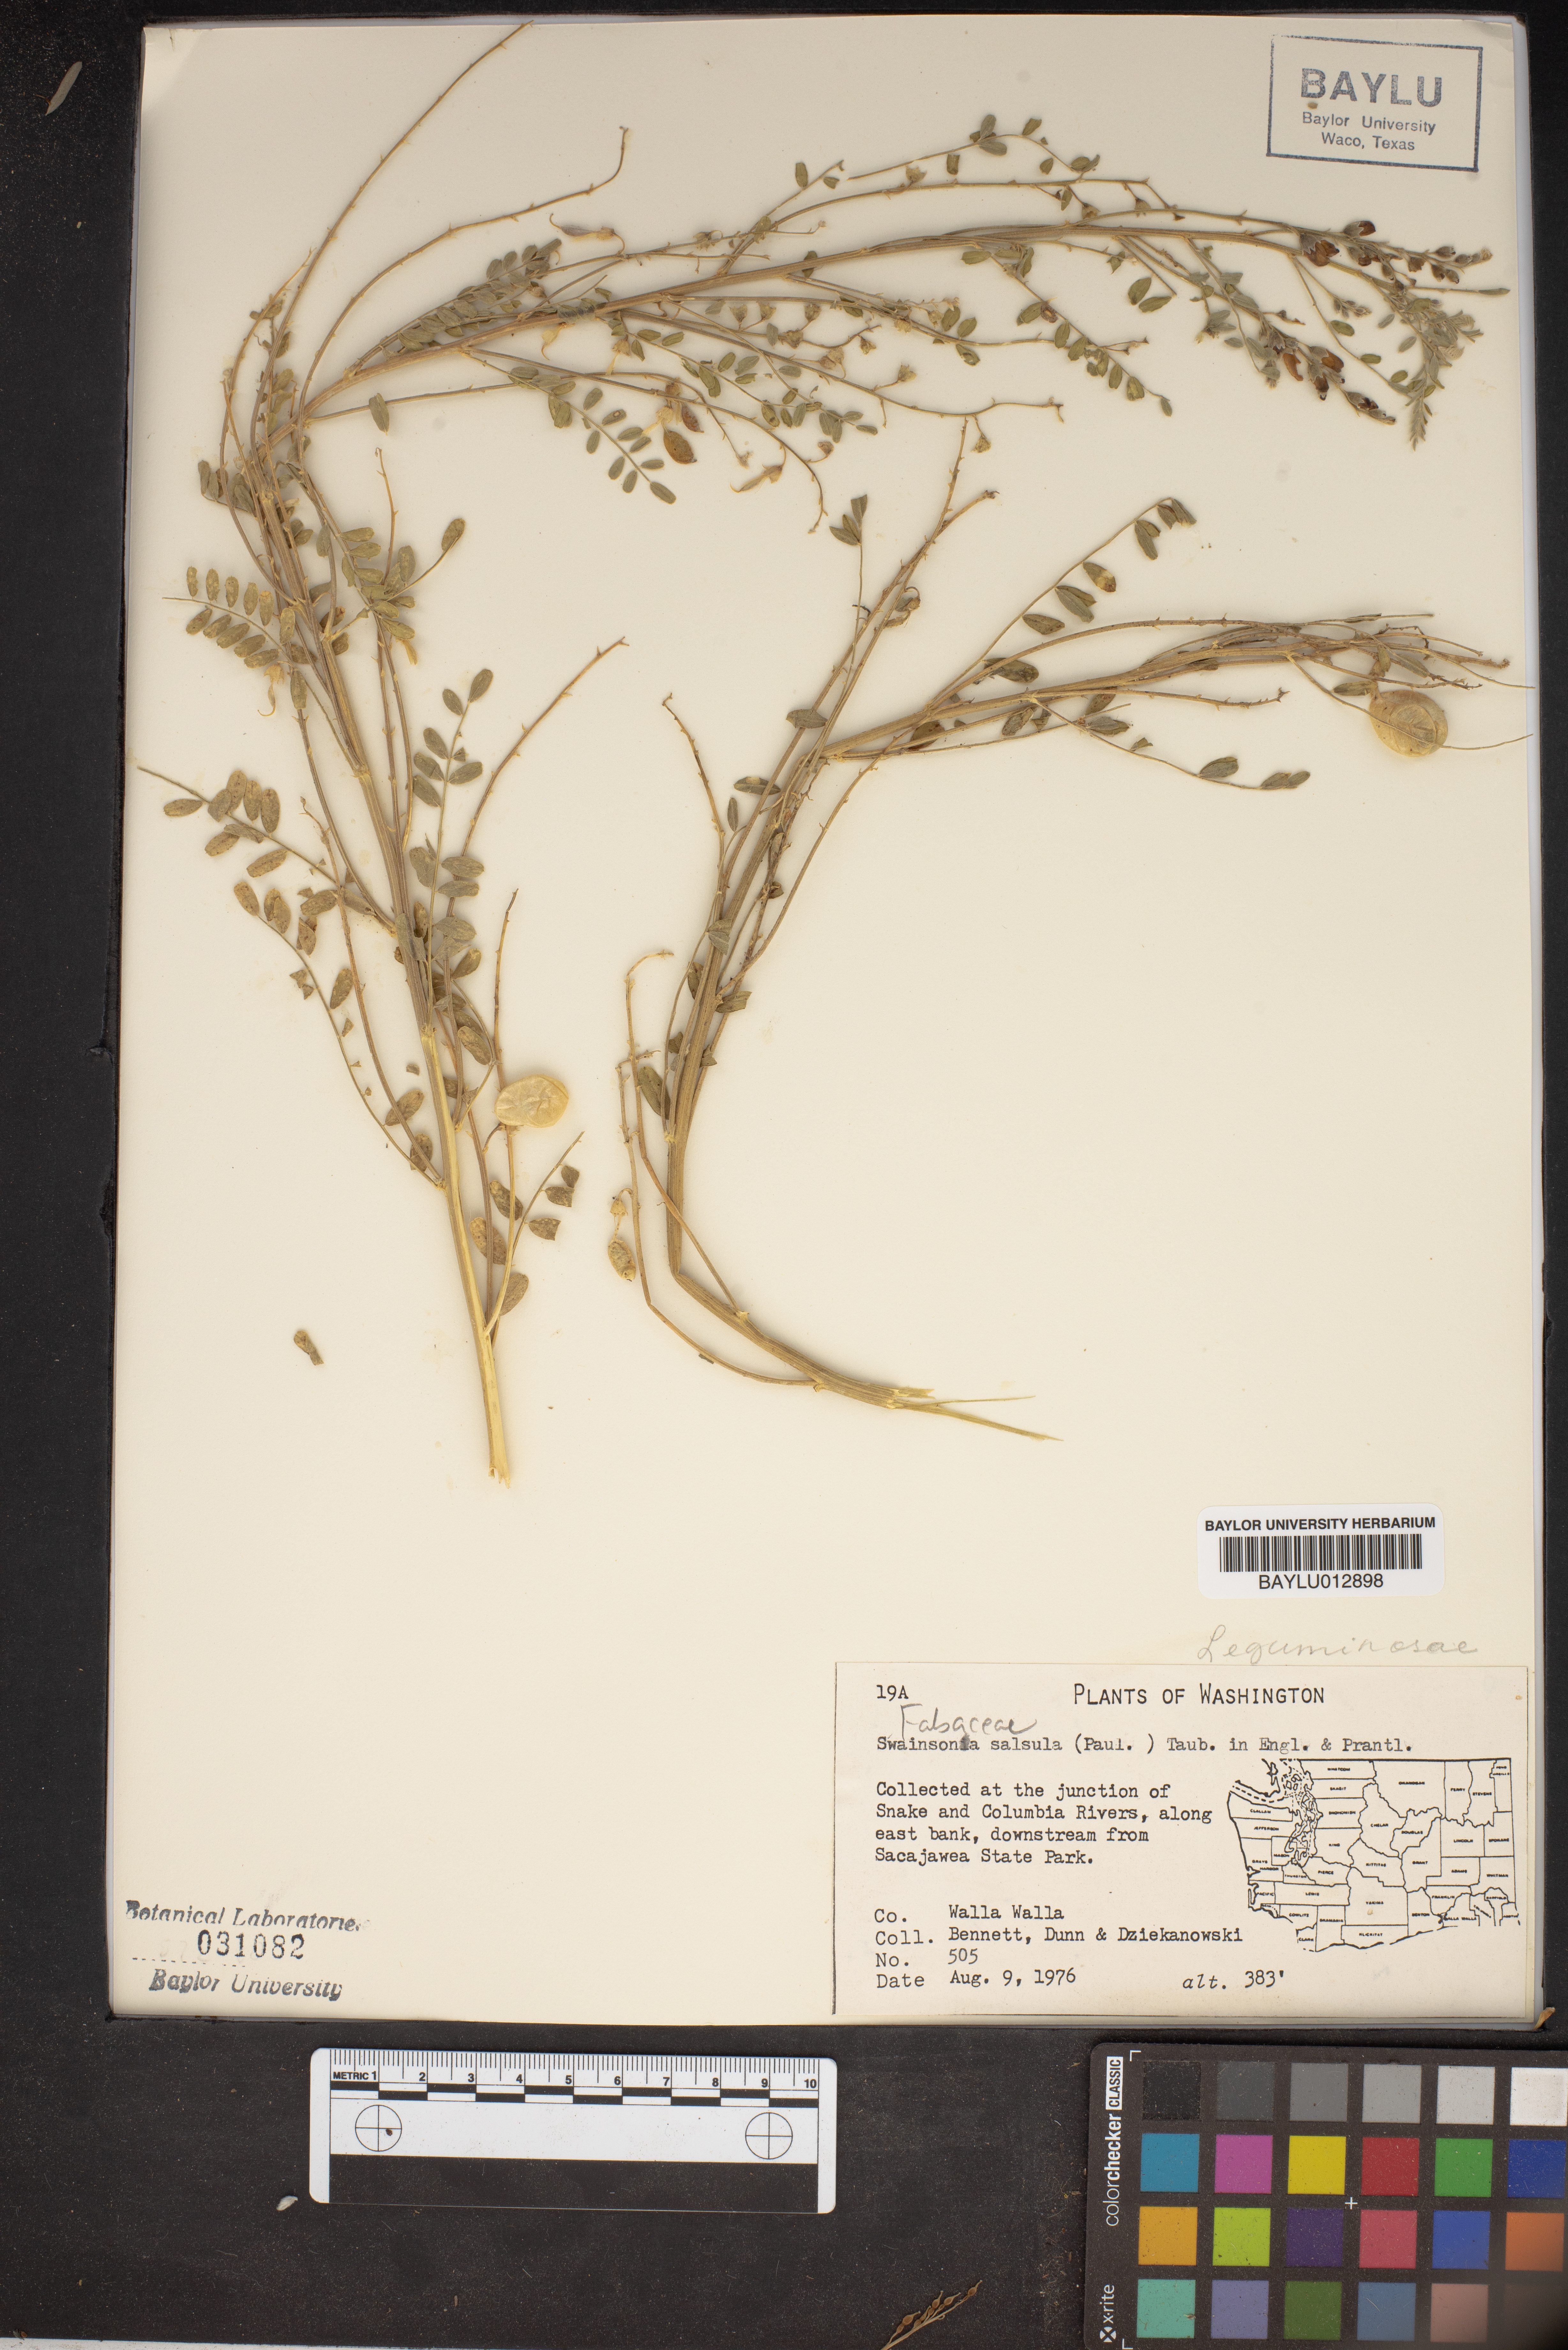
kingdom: Plantae
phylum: Tracheophyta
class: Magnoliopsida
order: Fabales
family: Fabaceae
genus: Sphaerophysa
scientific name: Sphaerophysa salsula
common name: Alkali swainsonpea
